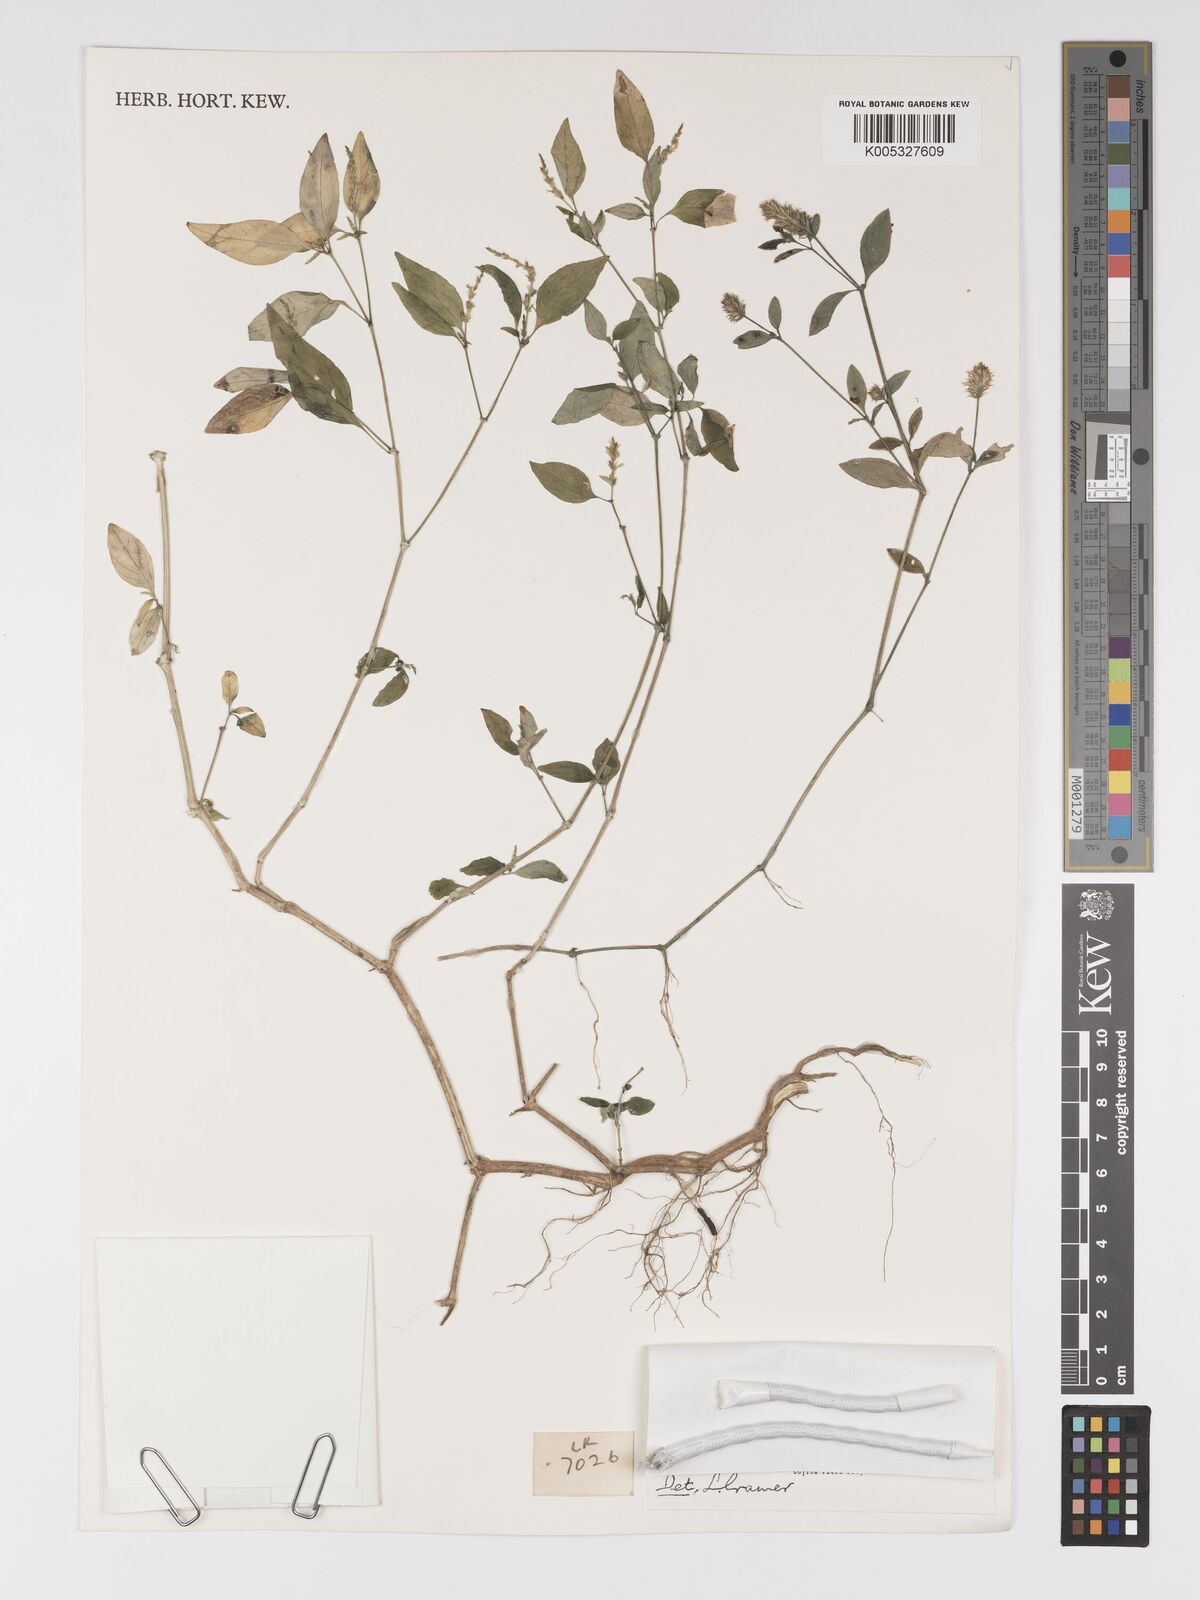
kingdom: Plantae
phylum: Tracheophyta
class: Magnoliopsida
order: Lamiales
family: Acanthaceae
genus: Rostellularia
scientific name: Rostellularia procumbens
